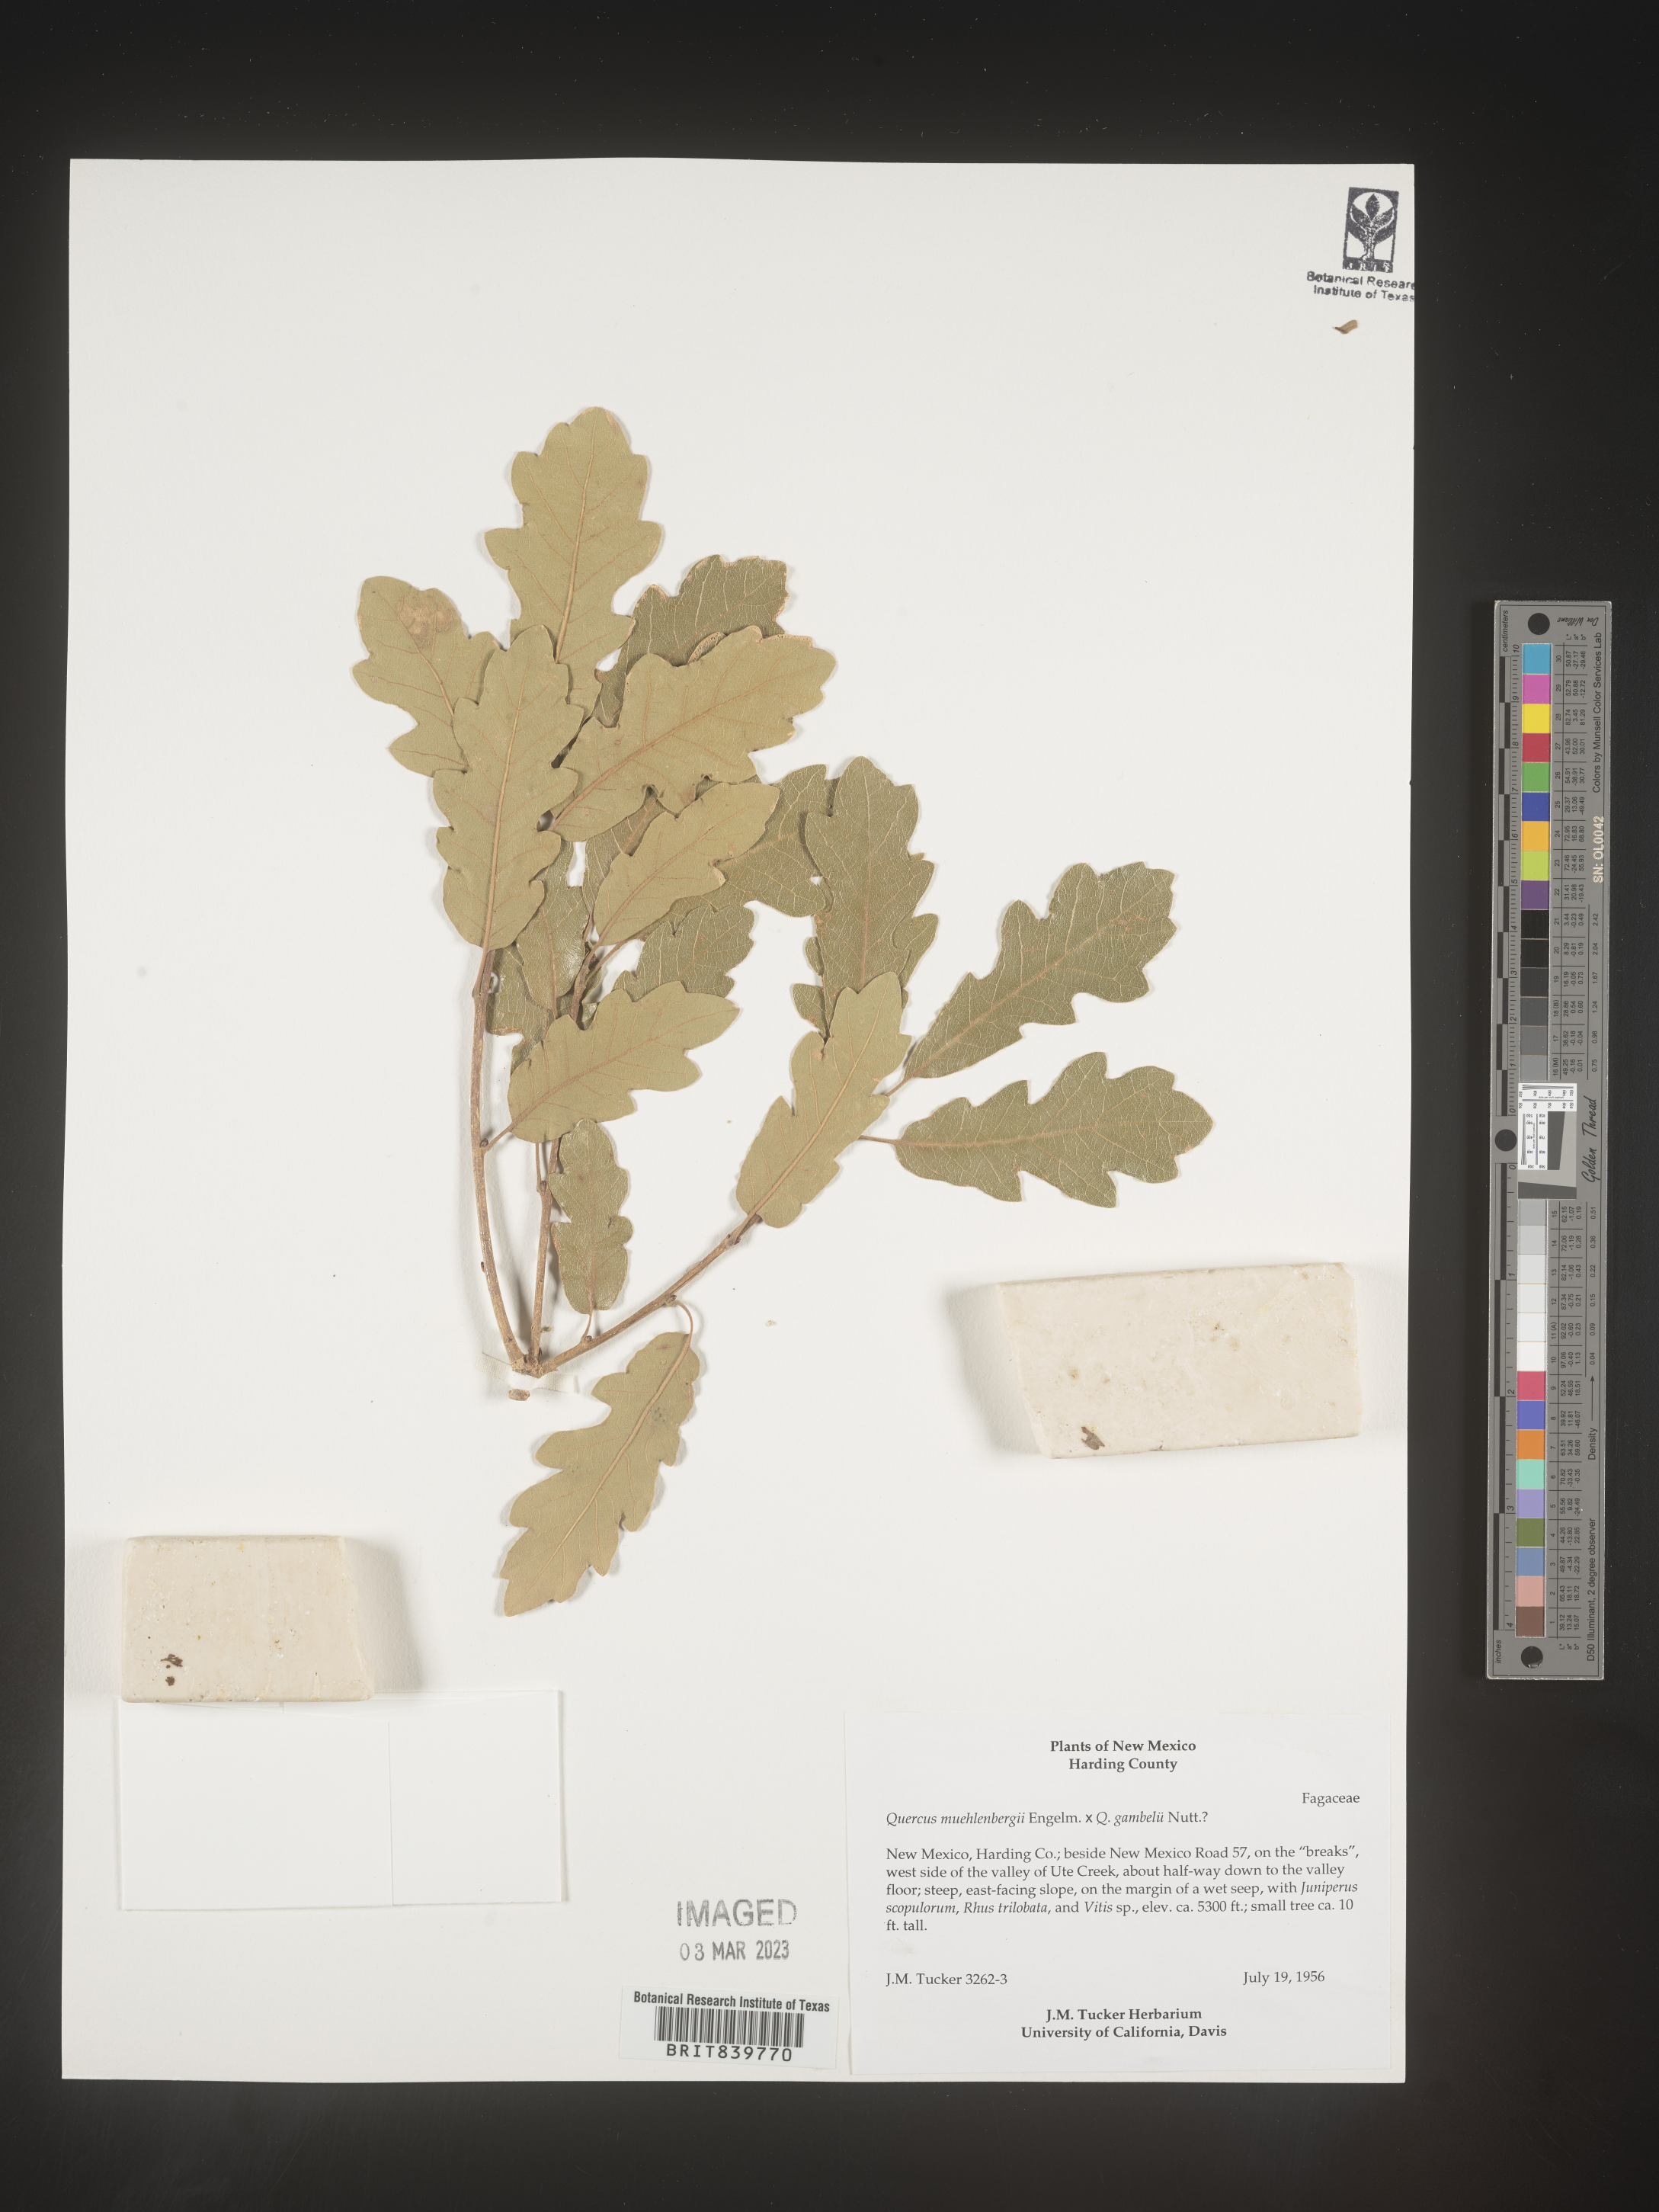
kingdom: Plantae
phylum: Tracheophyta
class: Magnoliopsida
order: Fagales
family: Fagaceae
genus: Quercus
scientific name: Quercus muehlenbergii
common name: Chinkapin oak
